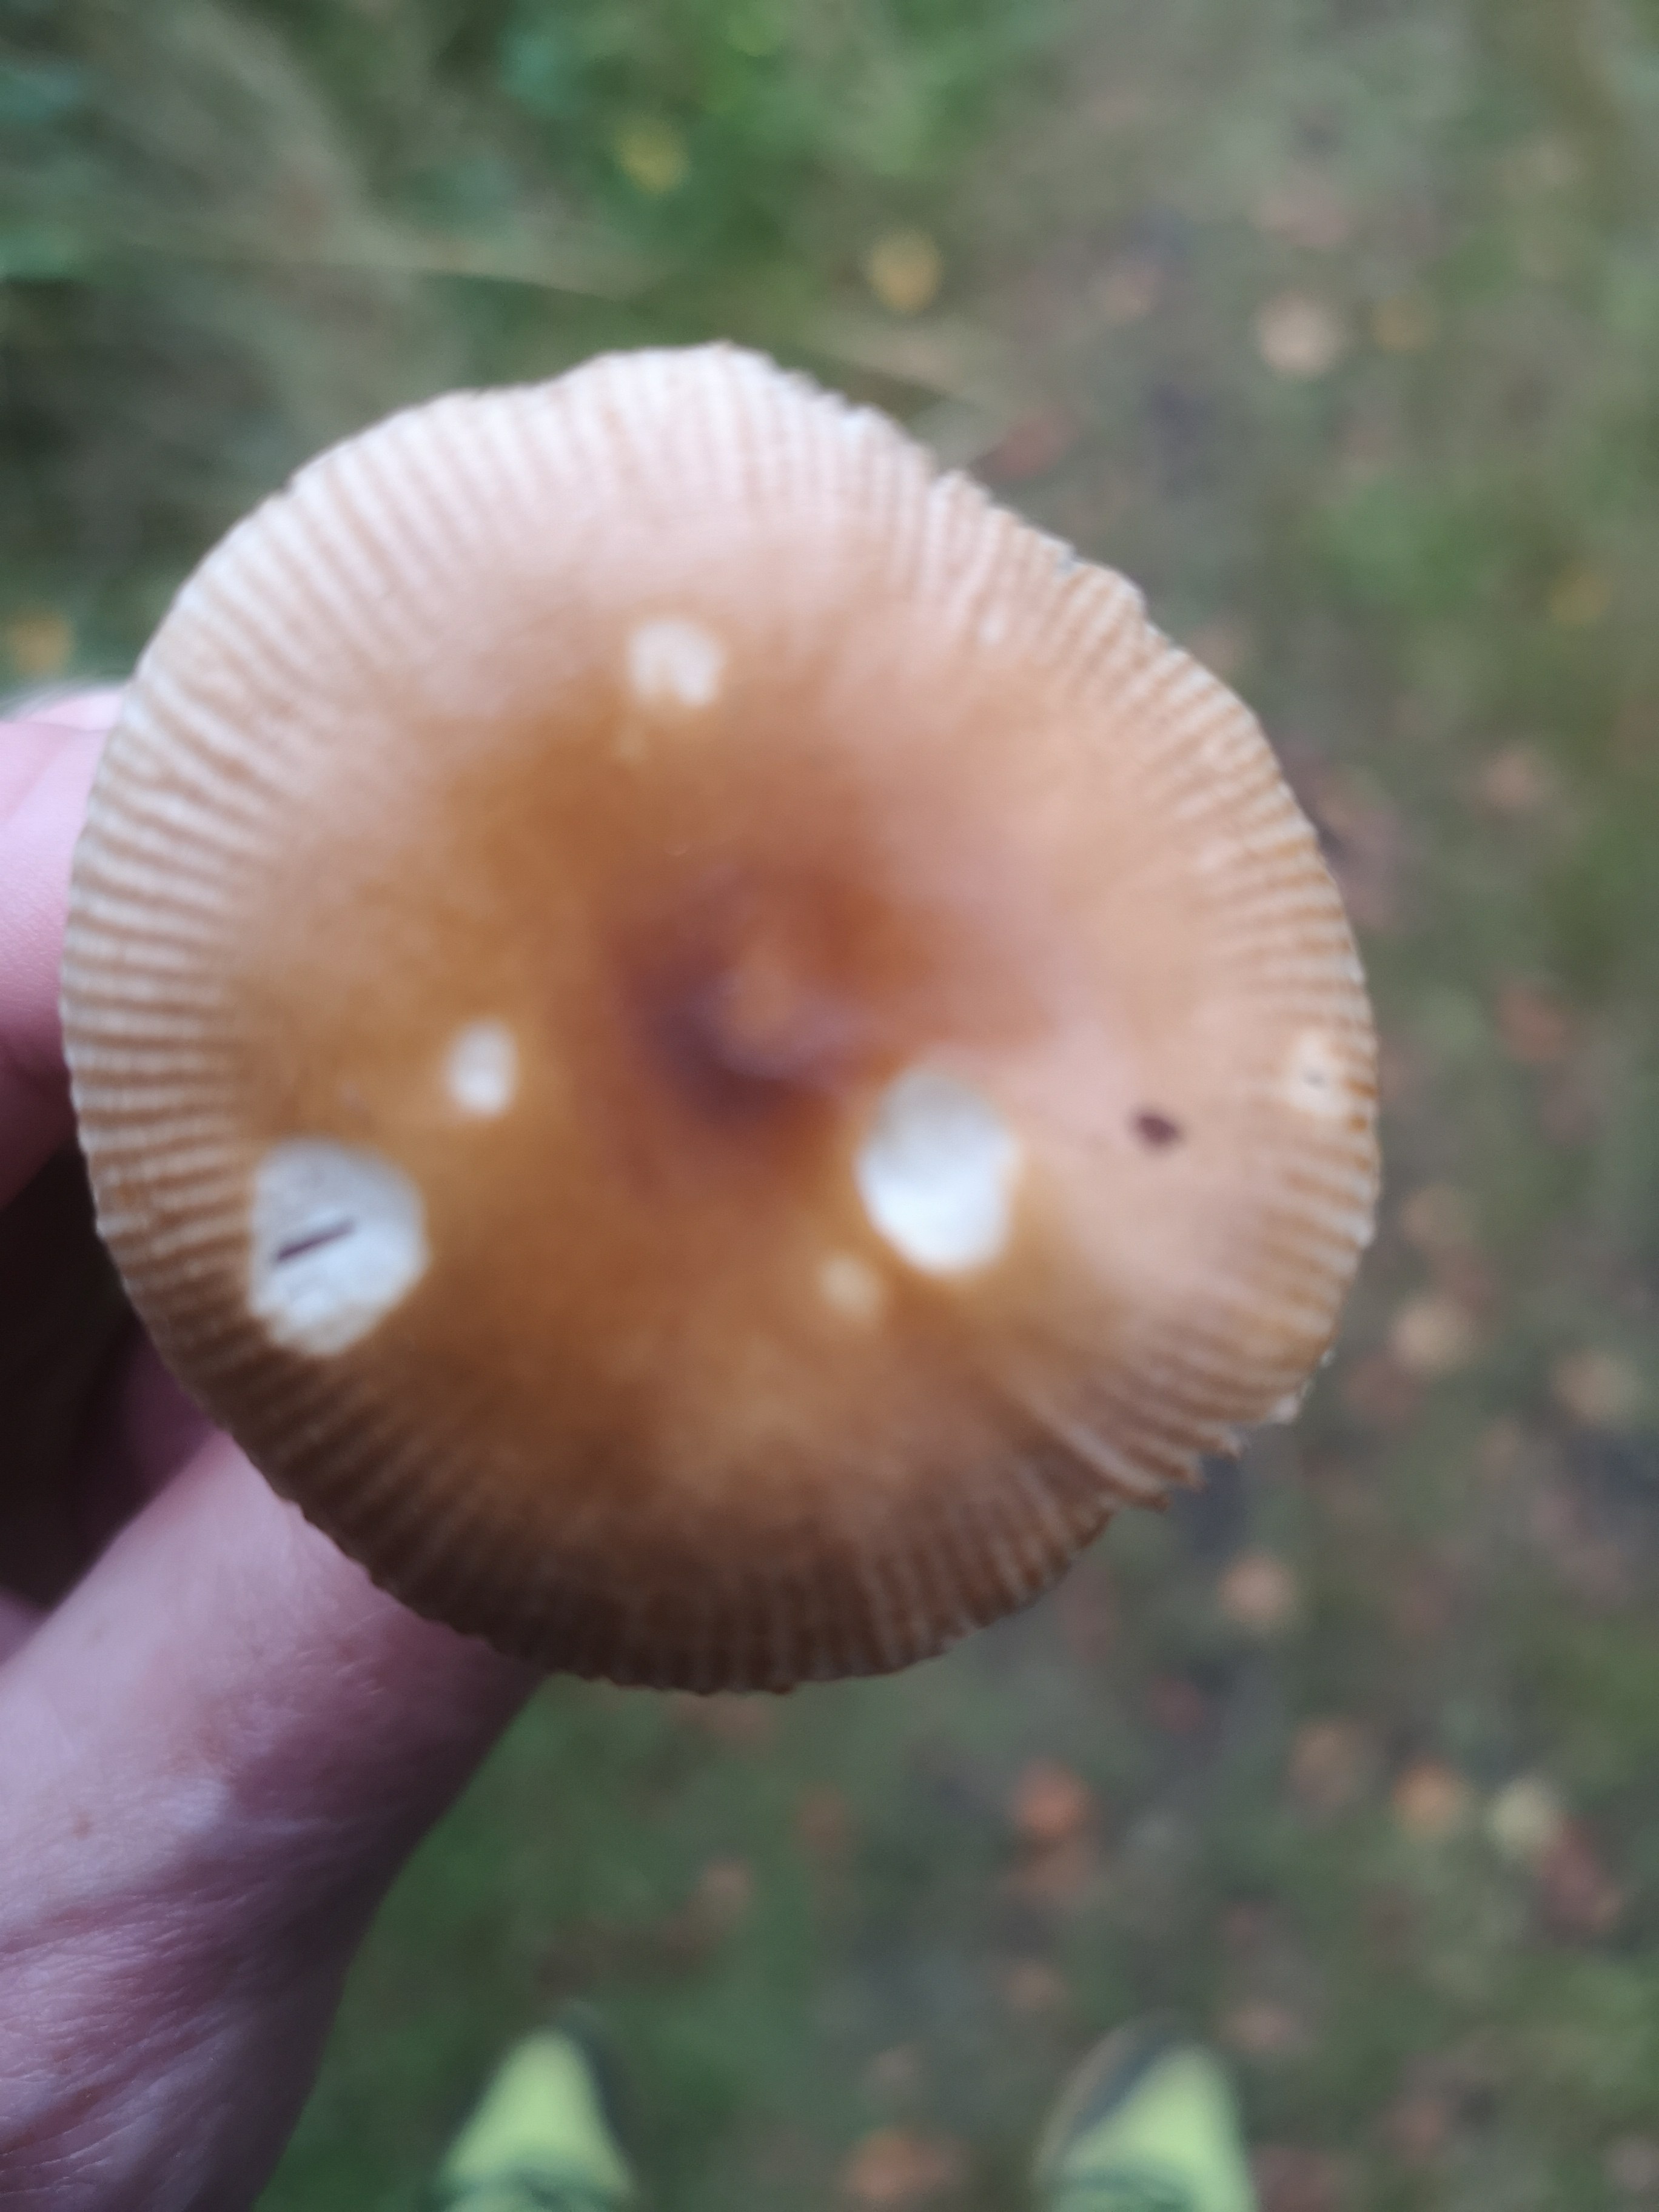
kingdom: Fungi
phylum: Basidiomycota
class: Agaricomycetes
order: Agaricales
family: Amanitaceae
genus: Amanita
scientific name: Amanita fulva
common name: brun kam-fluesvamp
